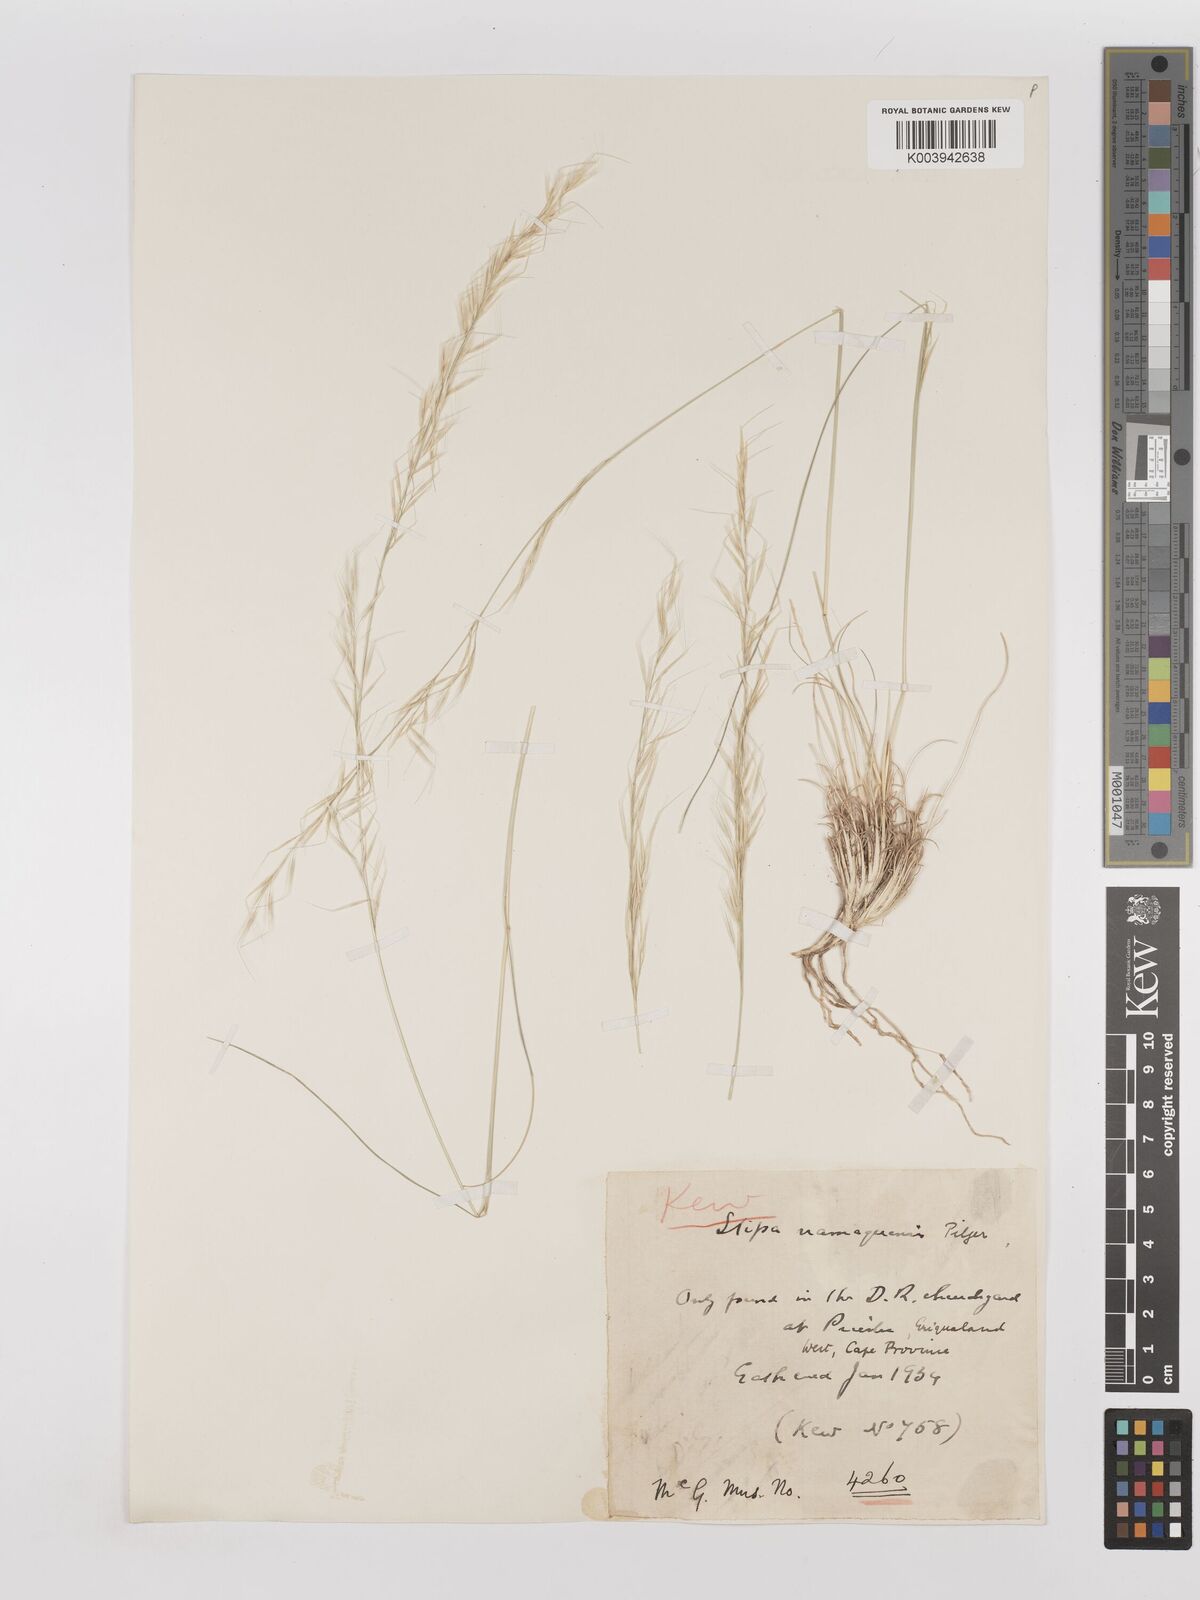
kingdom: Plantae
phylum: Tracheophyta
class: Liliopsida
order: Poales
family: Poaceae
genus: Stipagrostis
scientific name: Stipagrostis anomala
